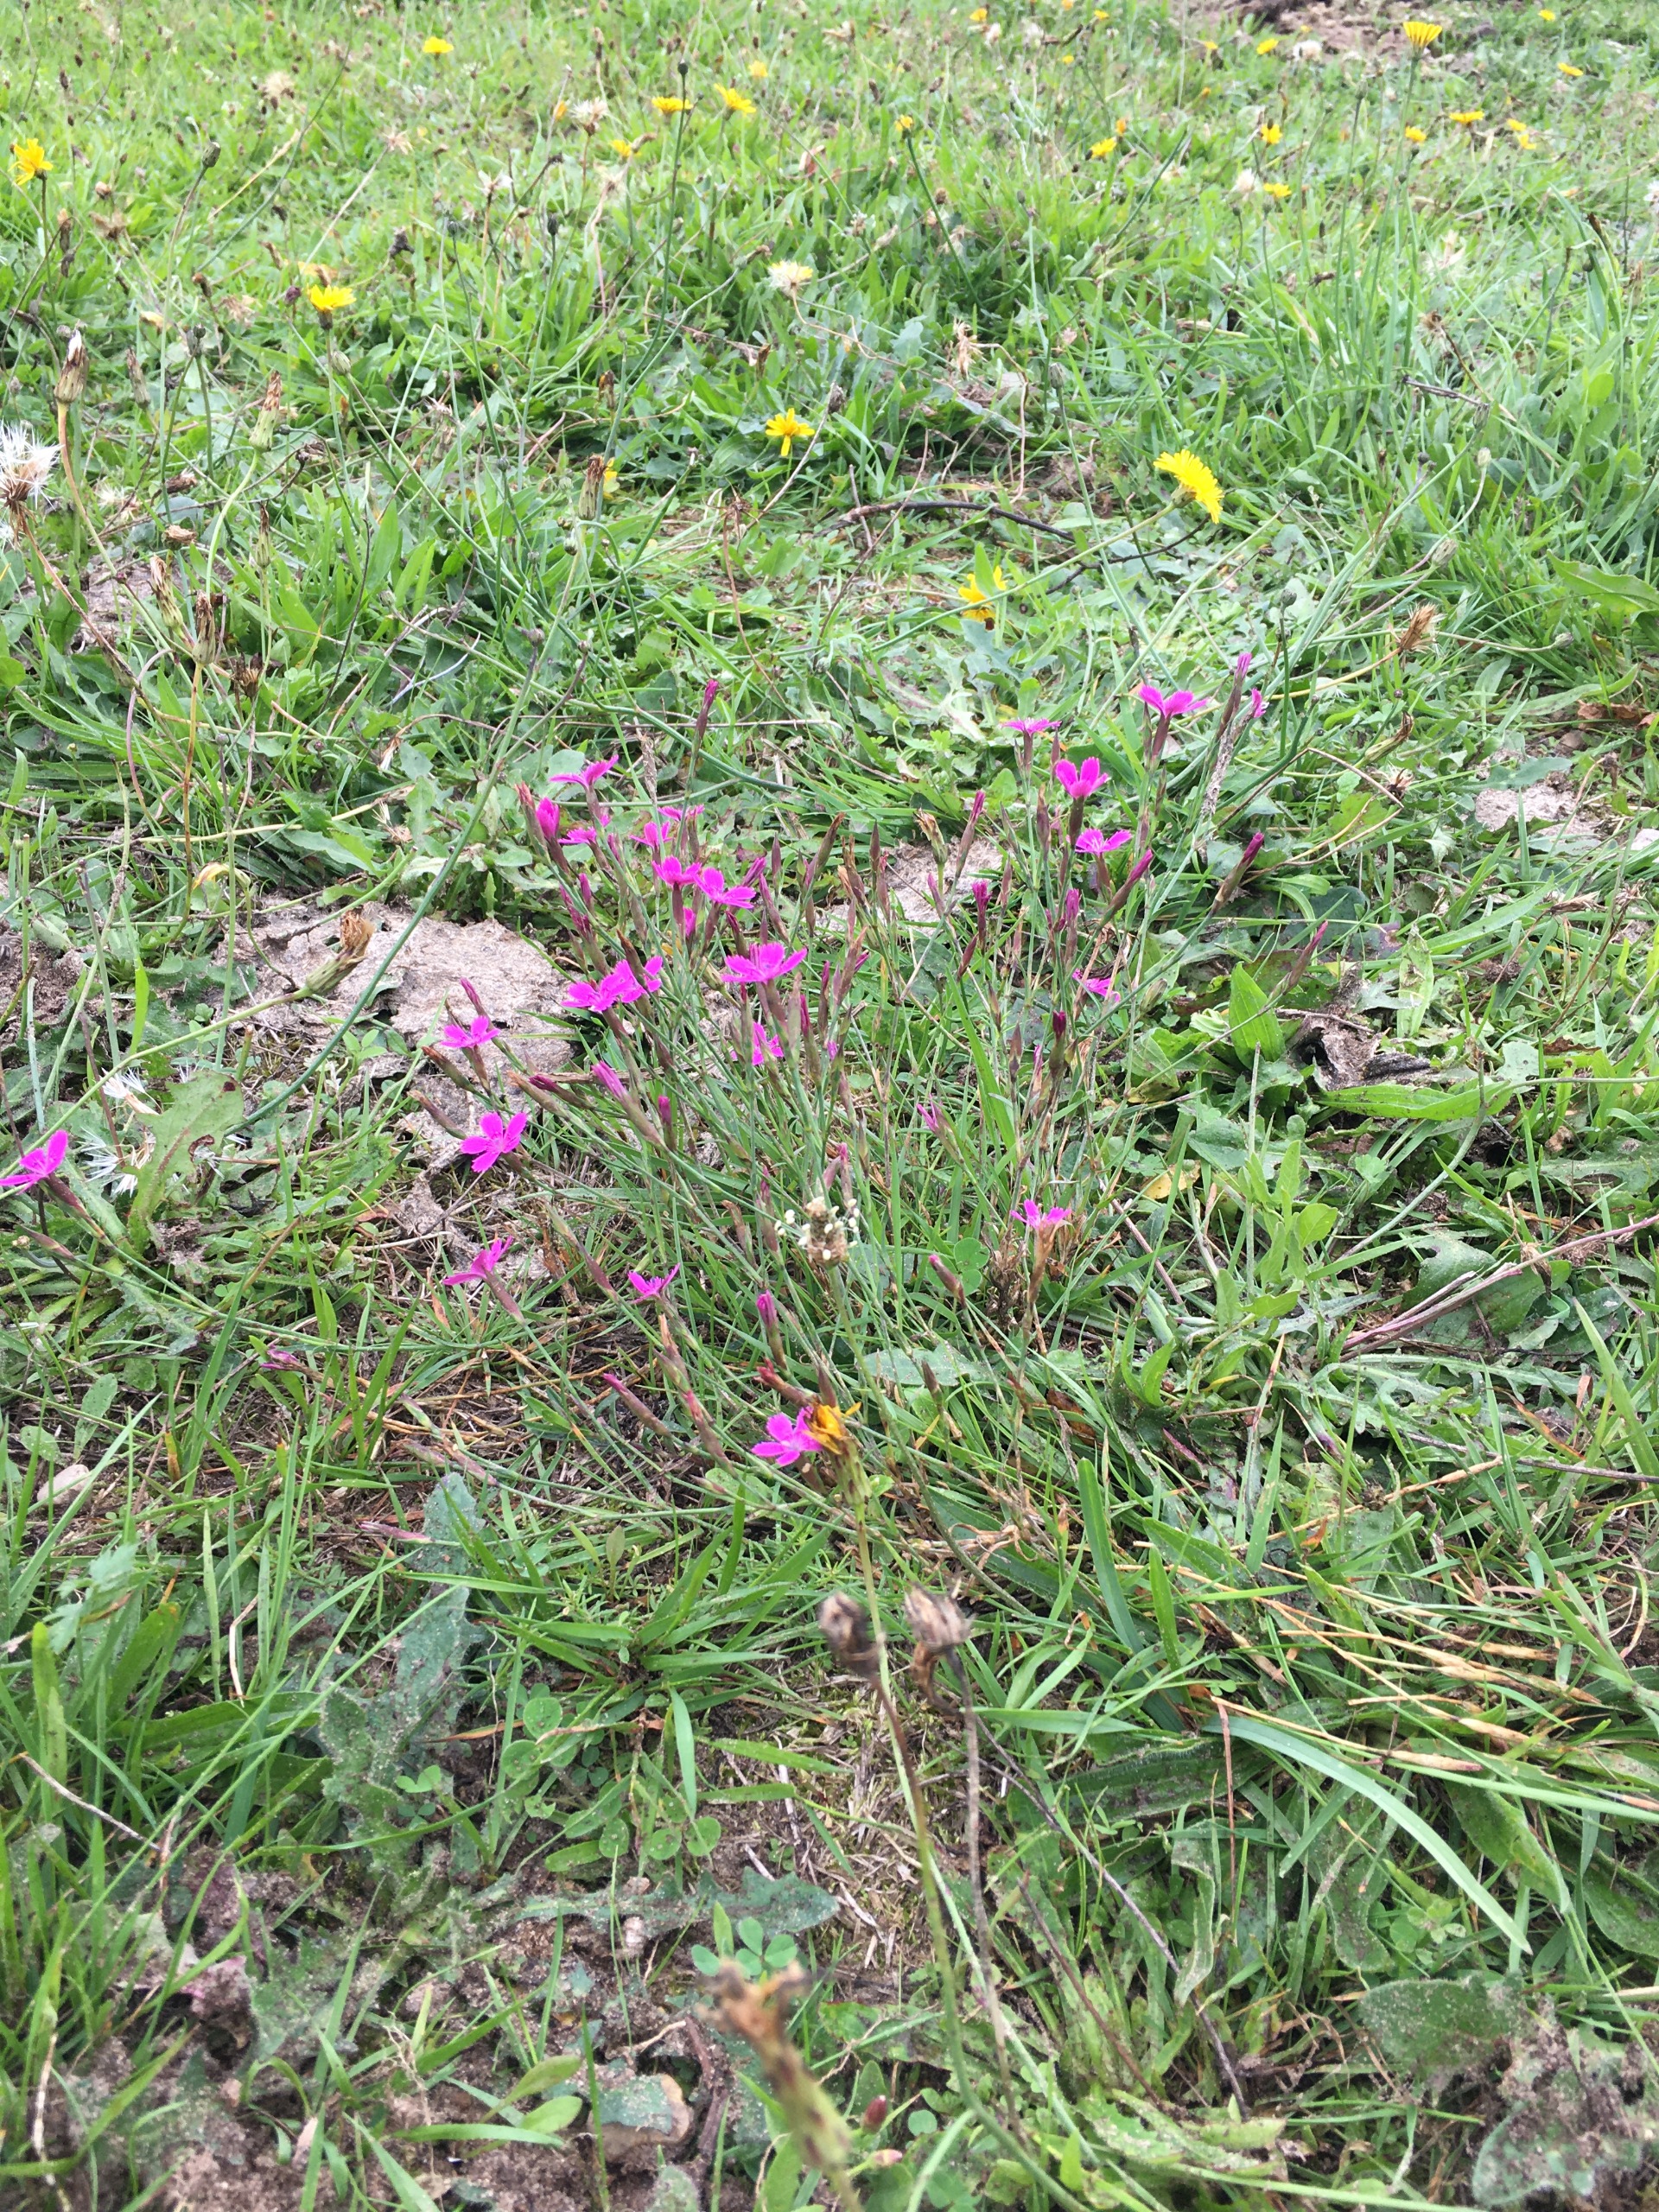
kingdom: Plantae
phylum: Tracheophyta
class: Magnoliopsida
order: Caryophyllales
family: Caryophyllaceae
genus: Dianthus
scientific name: Dianthus deltoides
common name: Bakke-nellike
